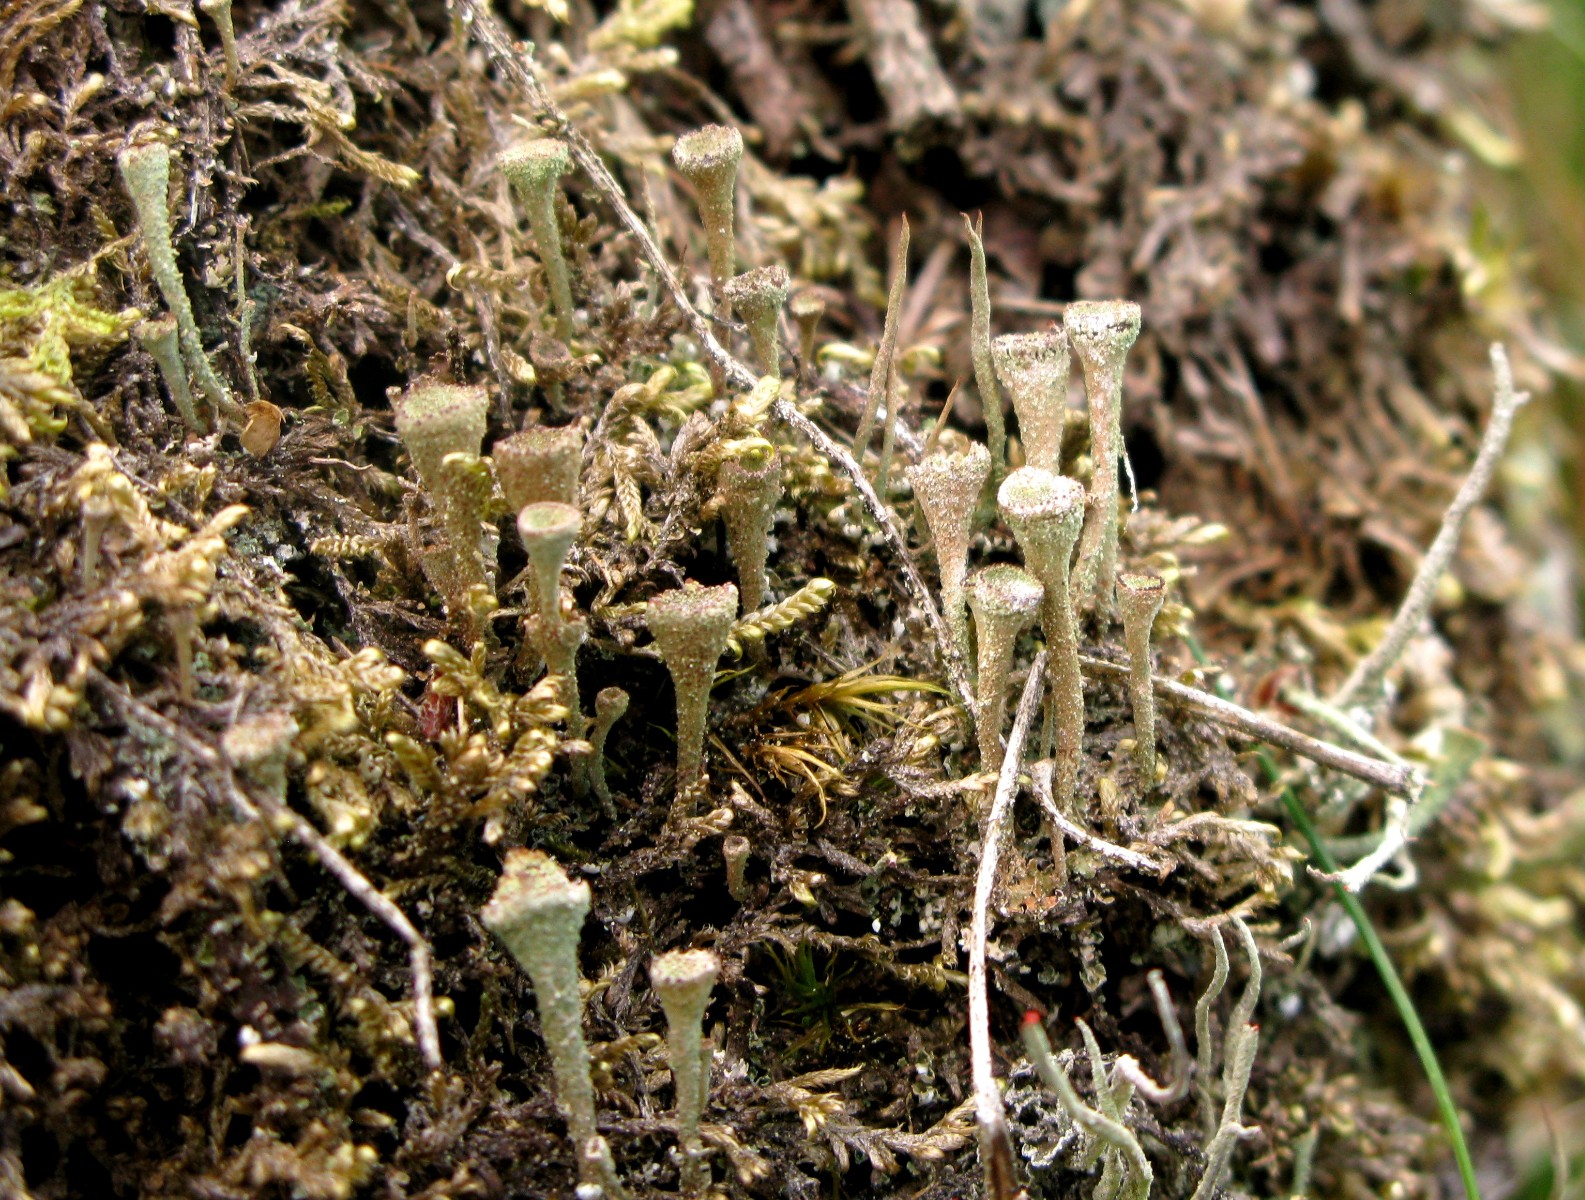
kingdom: Fungi
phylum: Ascomycota
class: Lecanoromycetes
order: Lecanorales
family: Cladoniaceae
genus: Cladonia
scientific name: Cladonia
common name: brungrøn bægerlav
